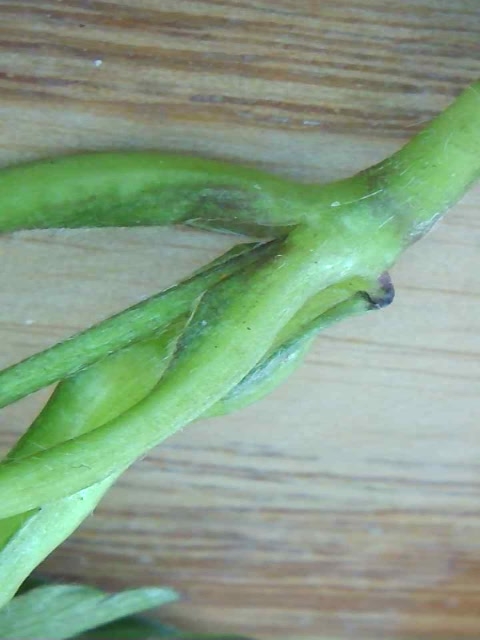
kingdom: Fungi
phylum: Basidiomycota
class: Ustilaginomycetes
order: Urocystidales
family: Urocystidaceae
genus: Urocystis
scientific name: Urocystis anemones
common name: anemone-brand
